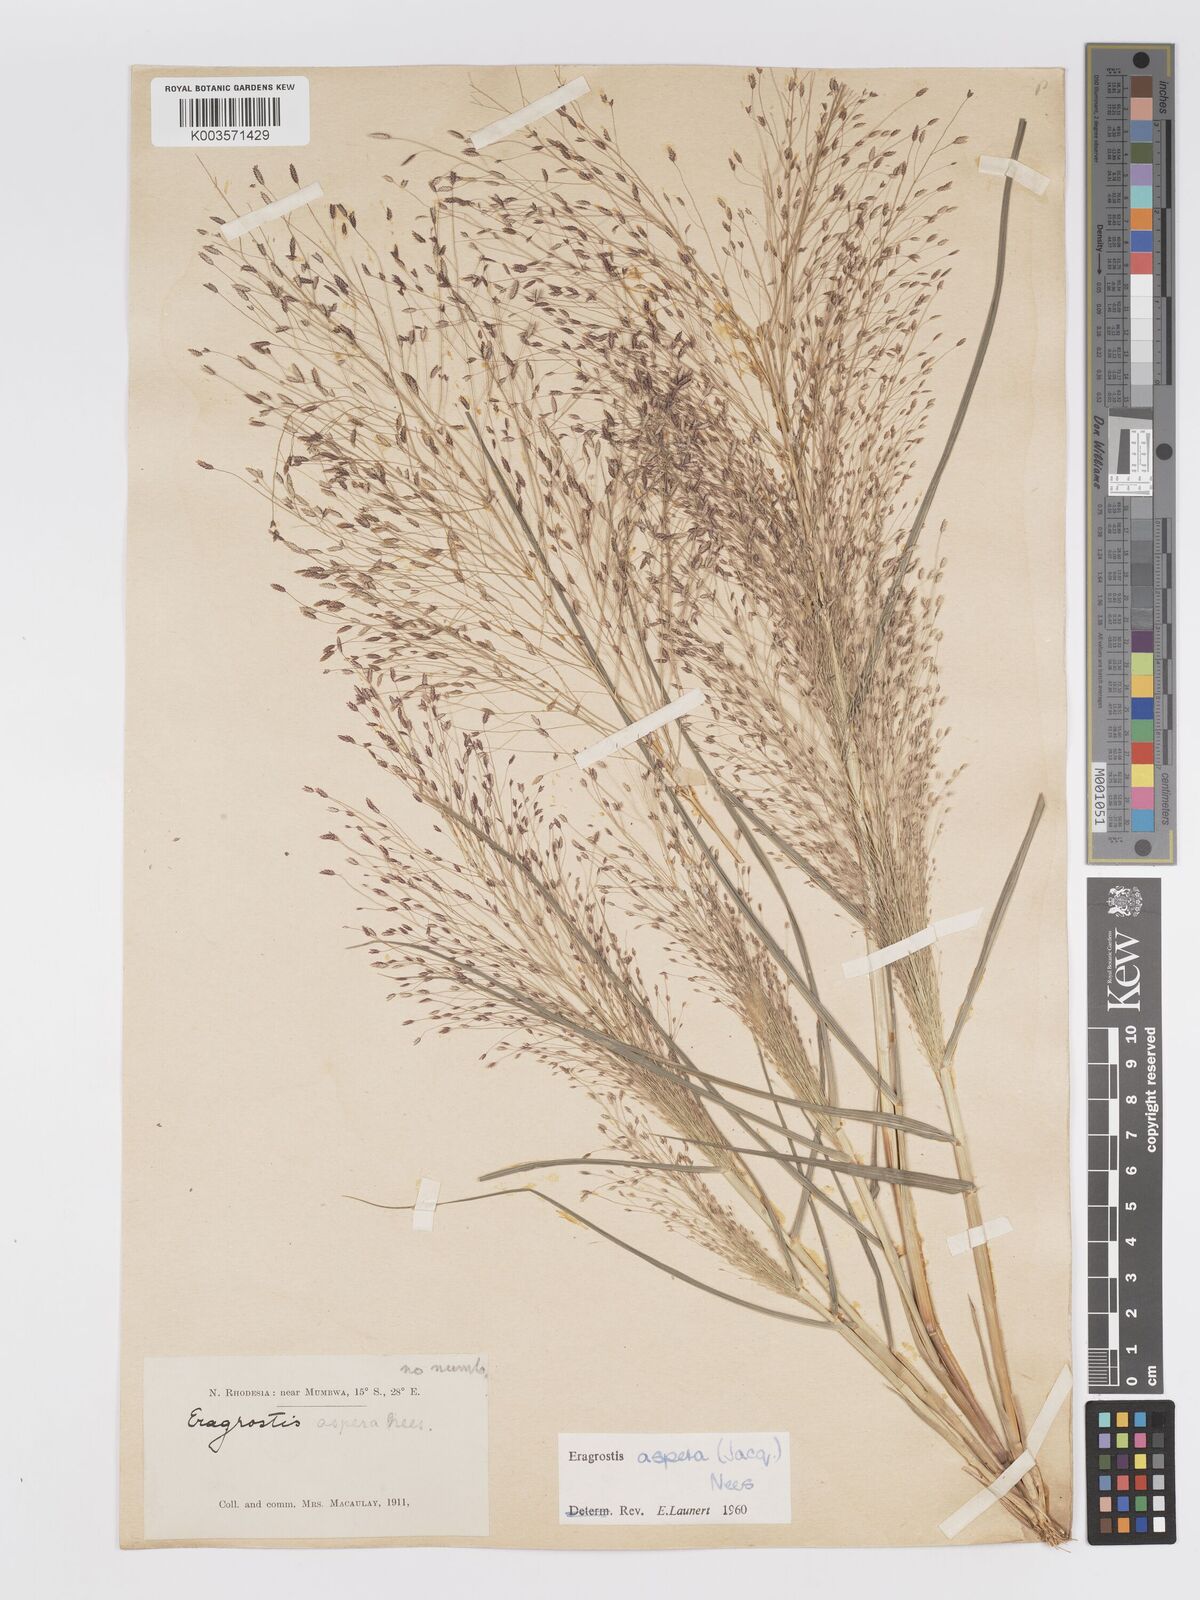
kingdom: Plantae
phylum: Tracheophyta
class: Liliopsida
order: Poales
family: Poaceae
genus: Eragrostis
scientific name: Eragrostis aspera
